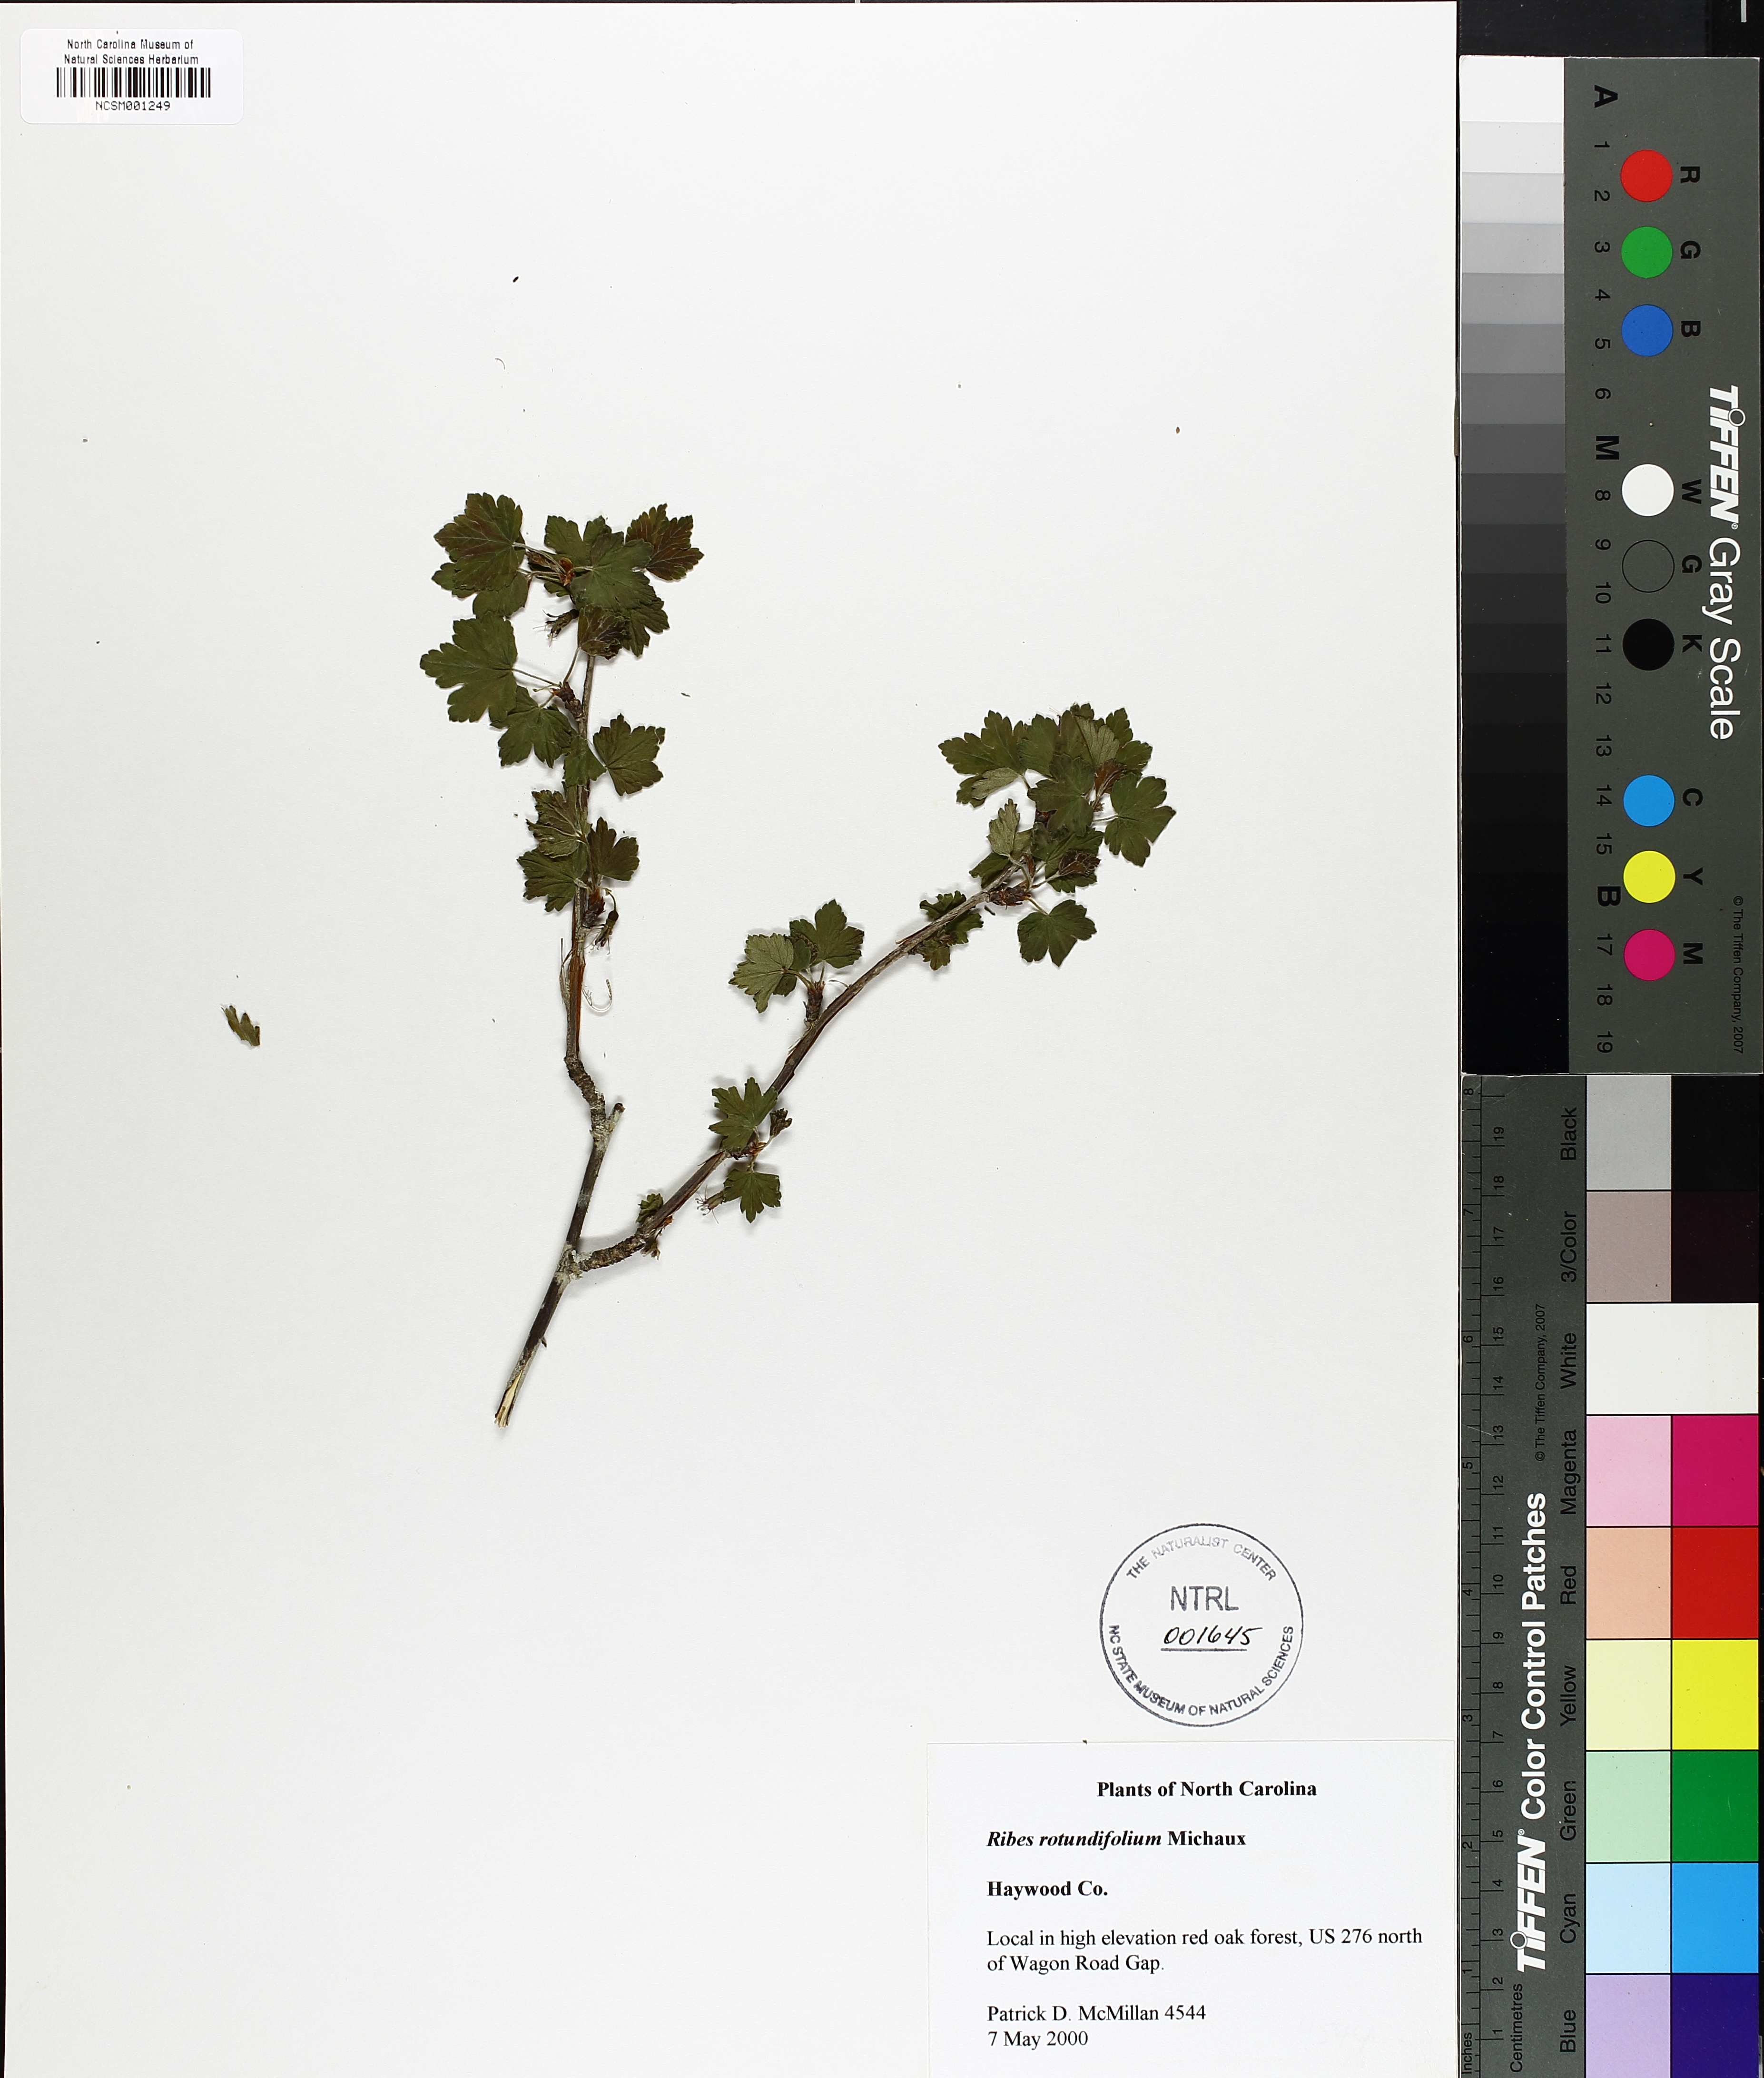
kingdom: Plantae
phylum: Tracheophyta
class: Magnoliopsida
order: Saxifragales
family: Grossulariaceae
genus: Ribes
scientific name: Ribes rotundifolium
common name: Appalachian gooseberry
